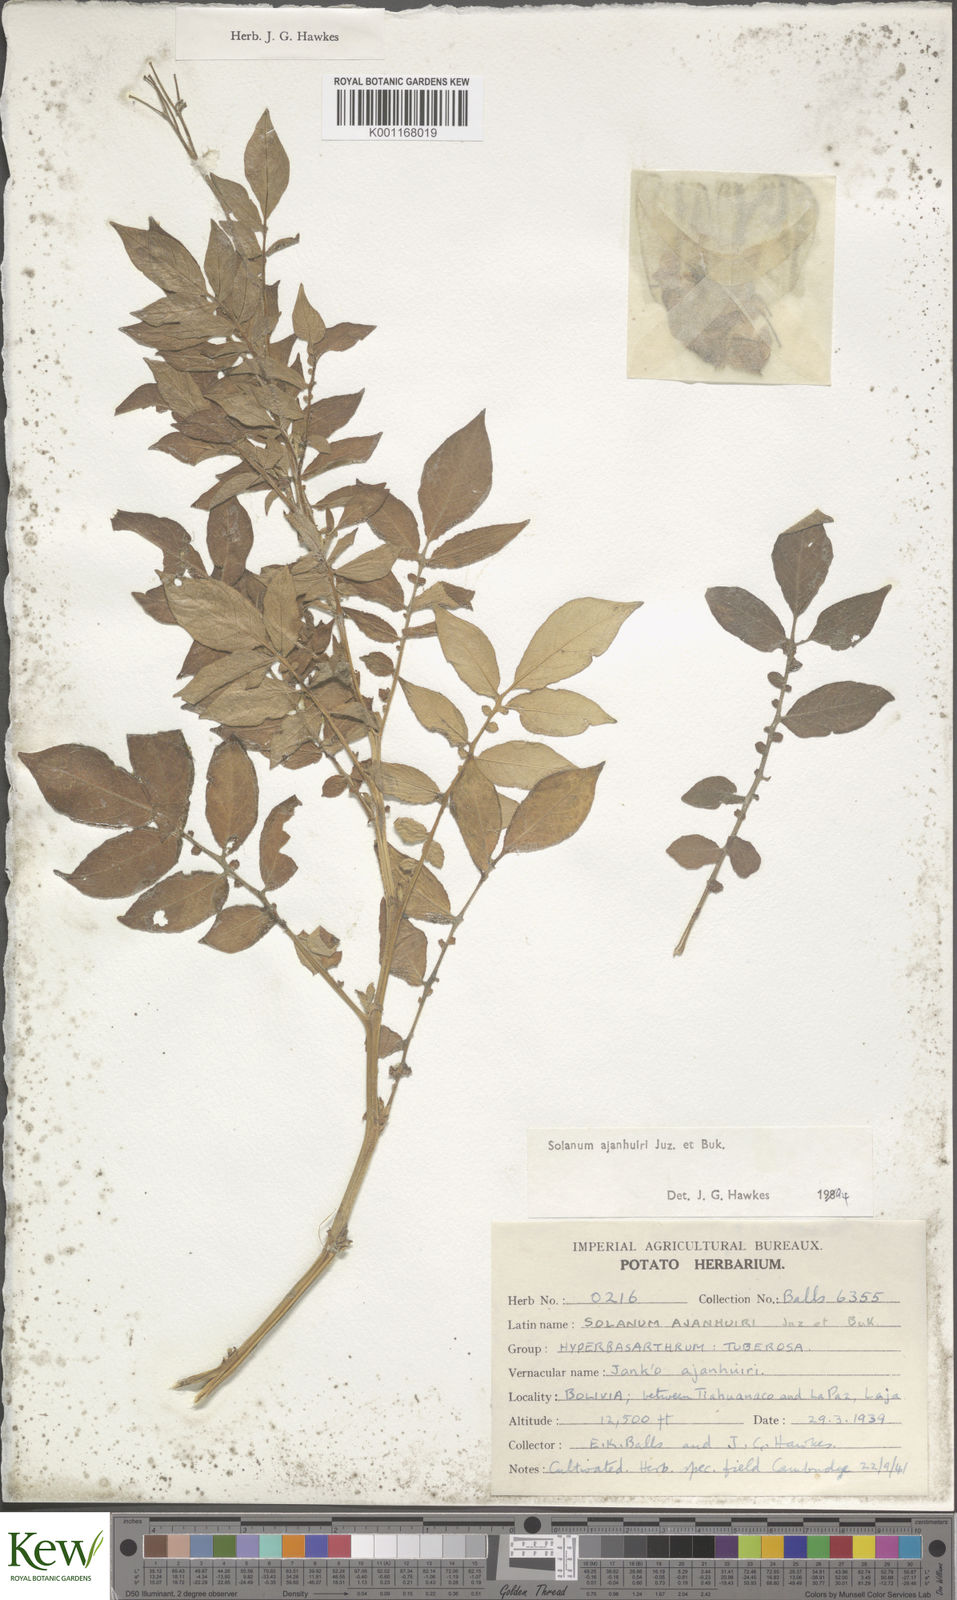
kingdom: Plantae
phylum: Tracheophyta
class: Magnoliopsida
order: Solanales
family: Solanaceae
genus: Solanum
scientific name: Solanum ajanhuiri
